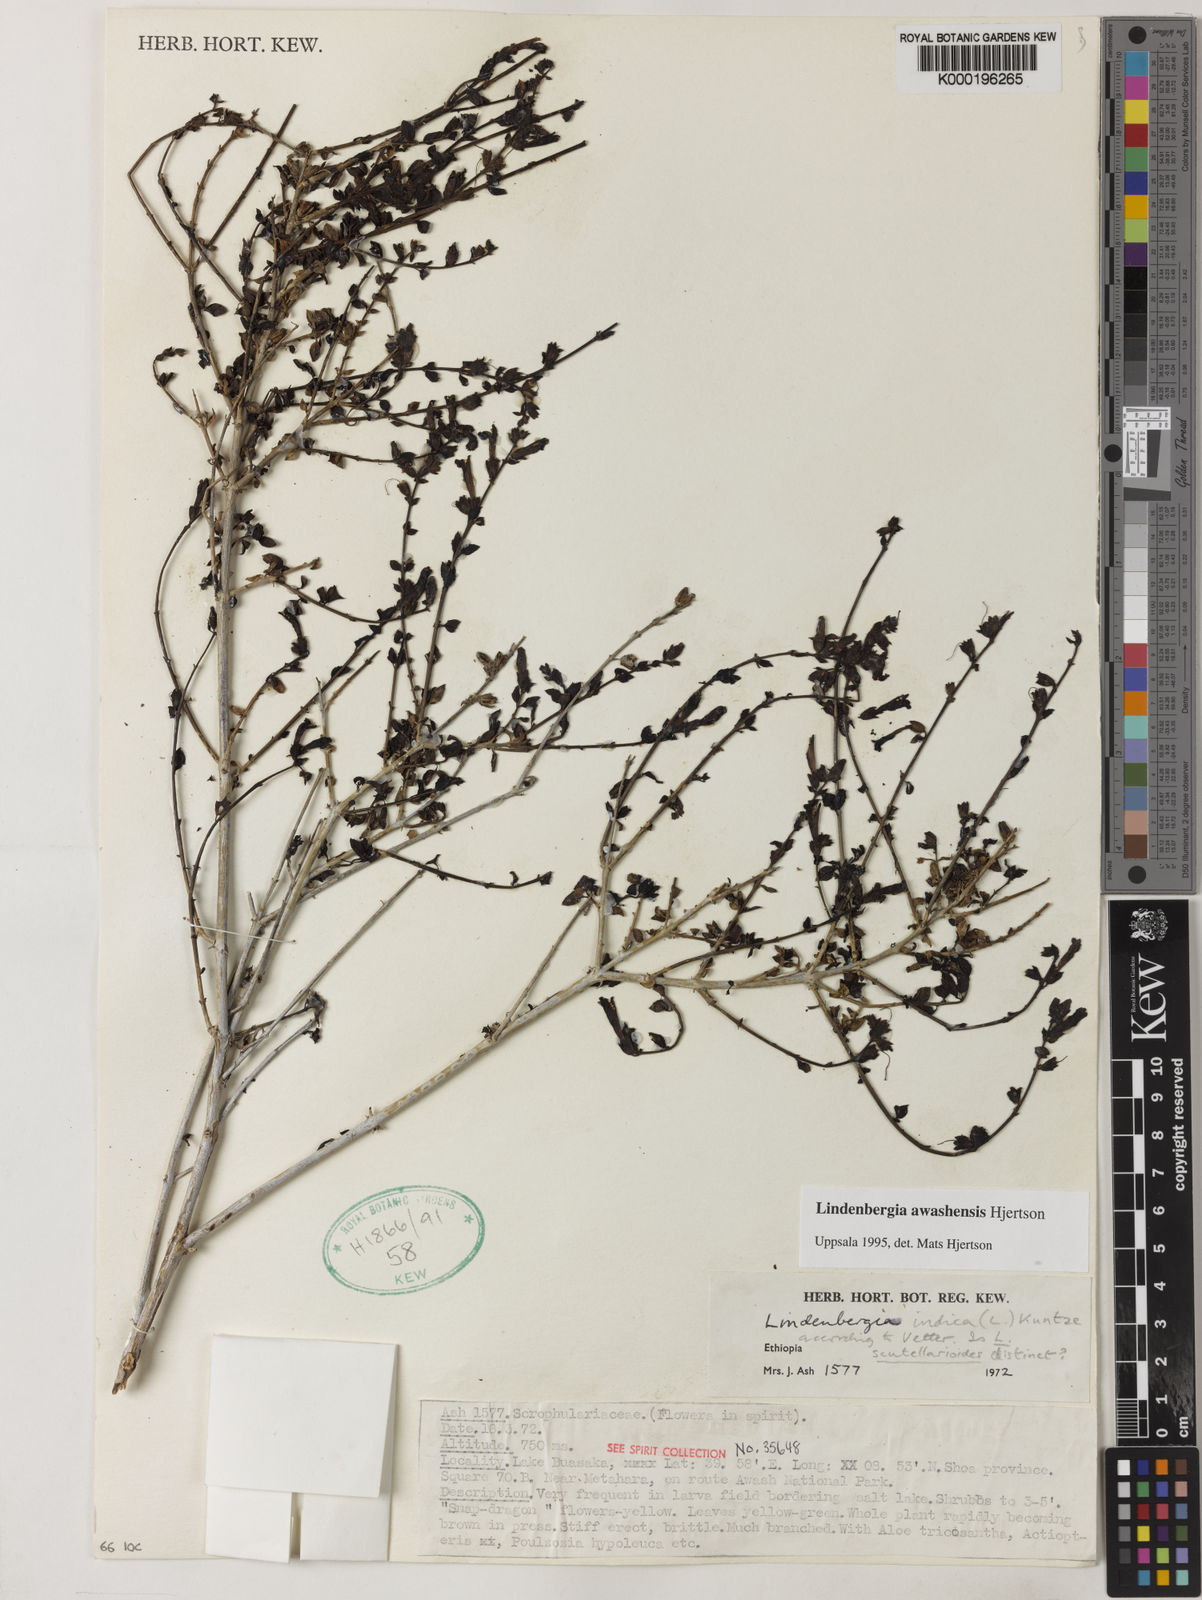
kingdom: Plantae
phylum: Tracheophyta
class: Magnoliopsida
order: Lamiales
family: Orobanchaceae
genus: Lindenbergia
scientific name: Lindenbergia awashensis
